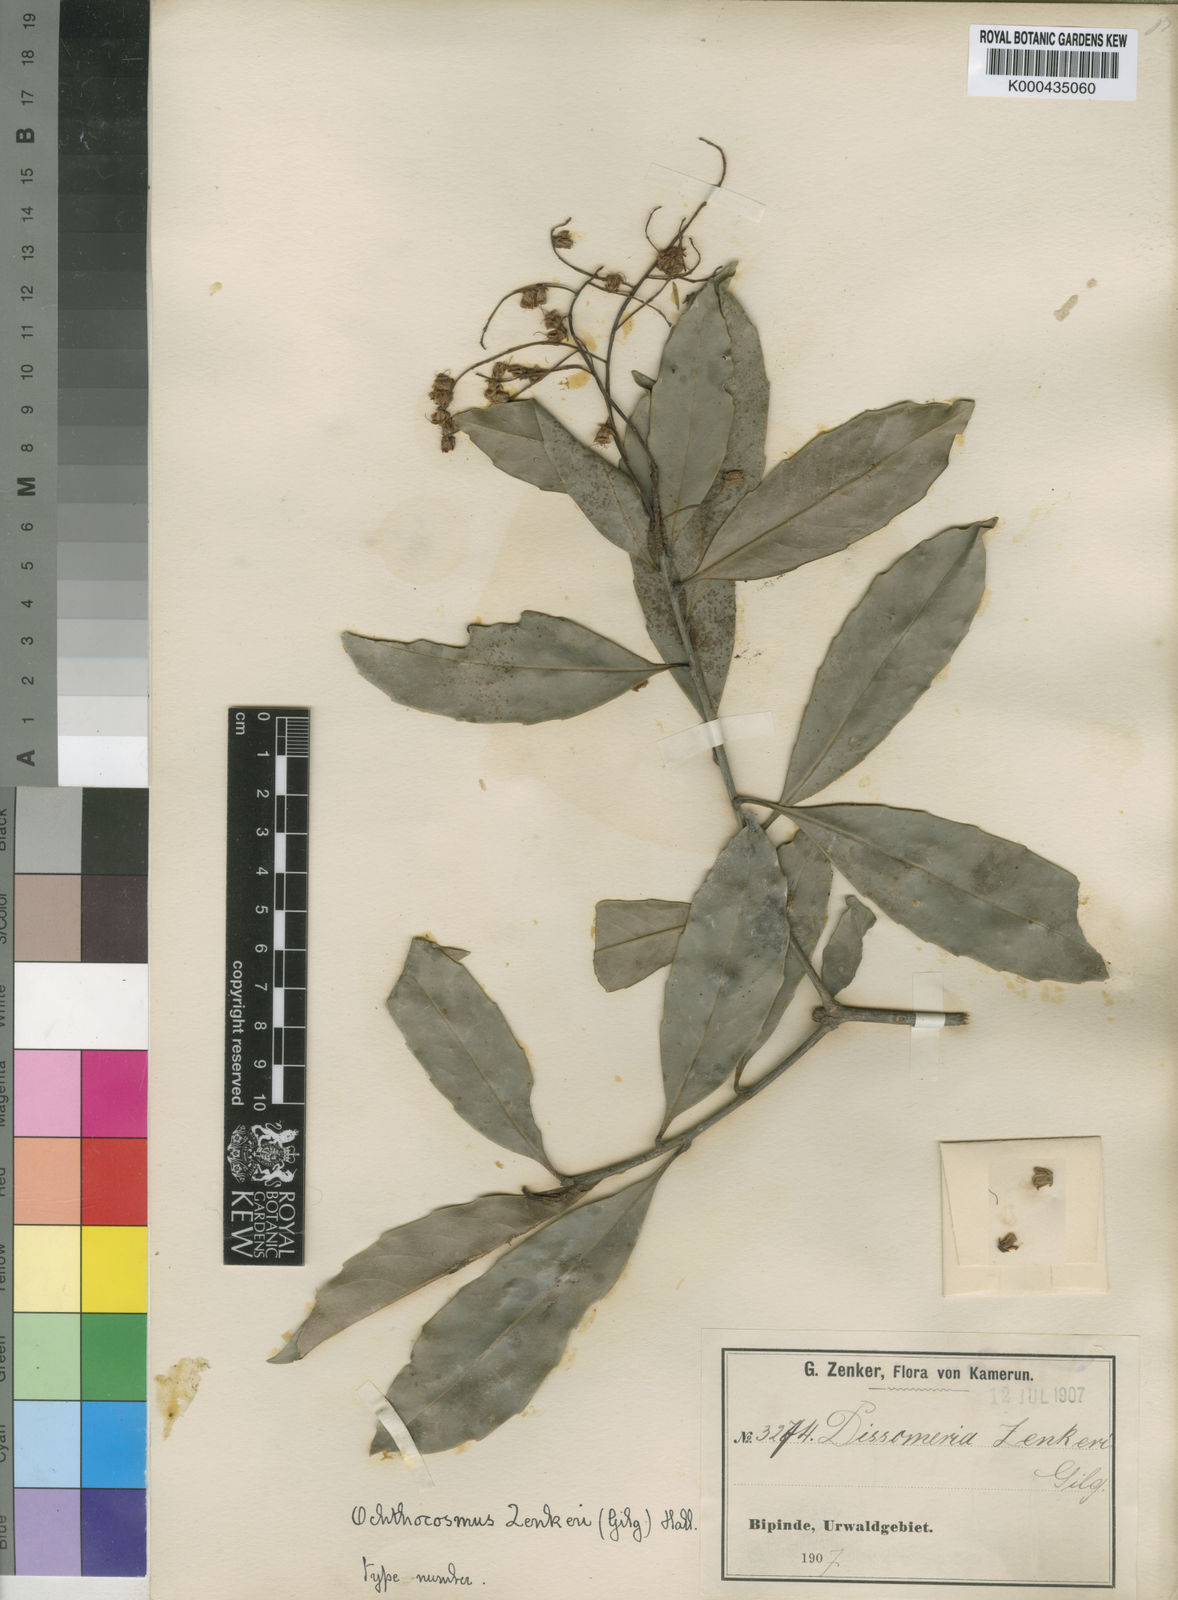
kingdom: Plantae
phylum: Tracheophyta
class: Magnoliopsida
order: Malpighiales
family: Ixonanthaceae
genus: Phyllocosmus
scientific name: Phyllocosmus sessiliflorus
